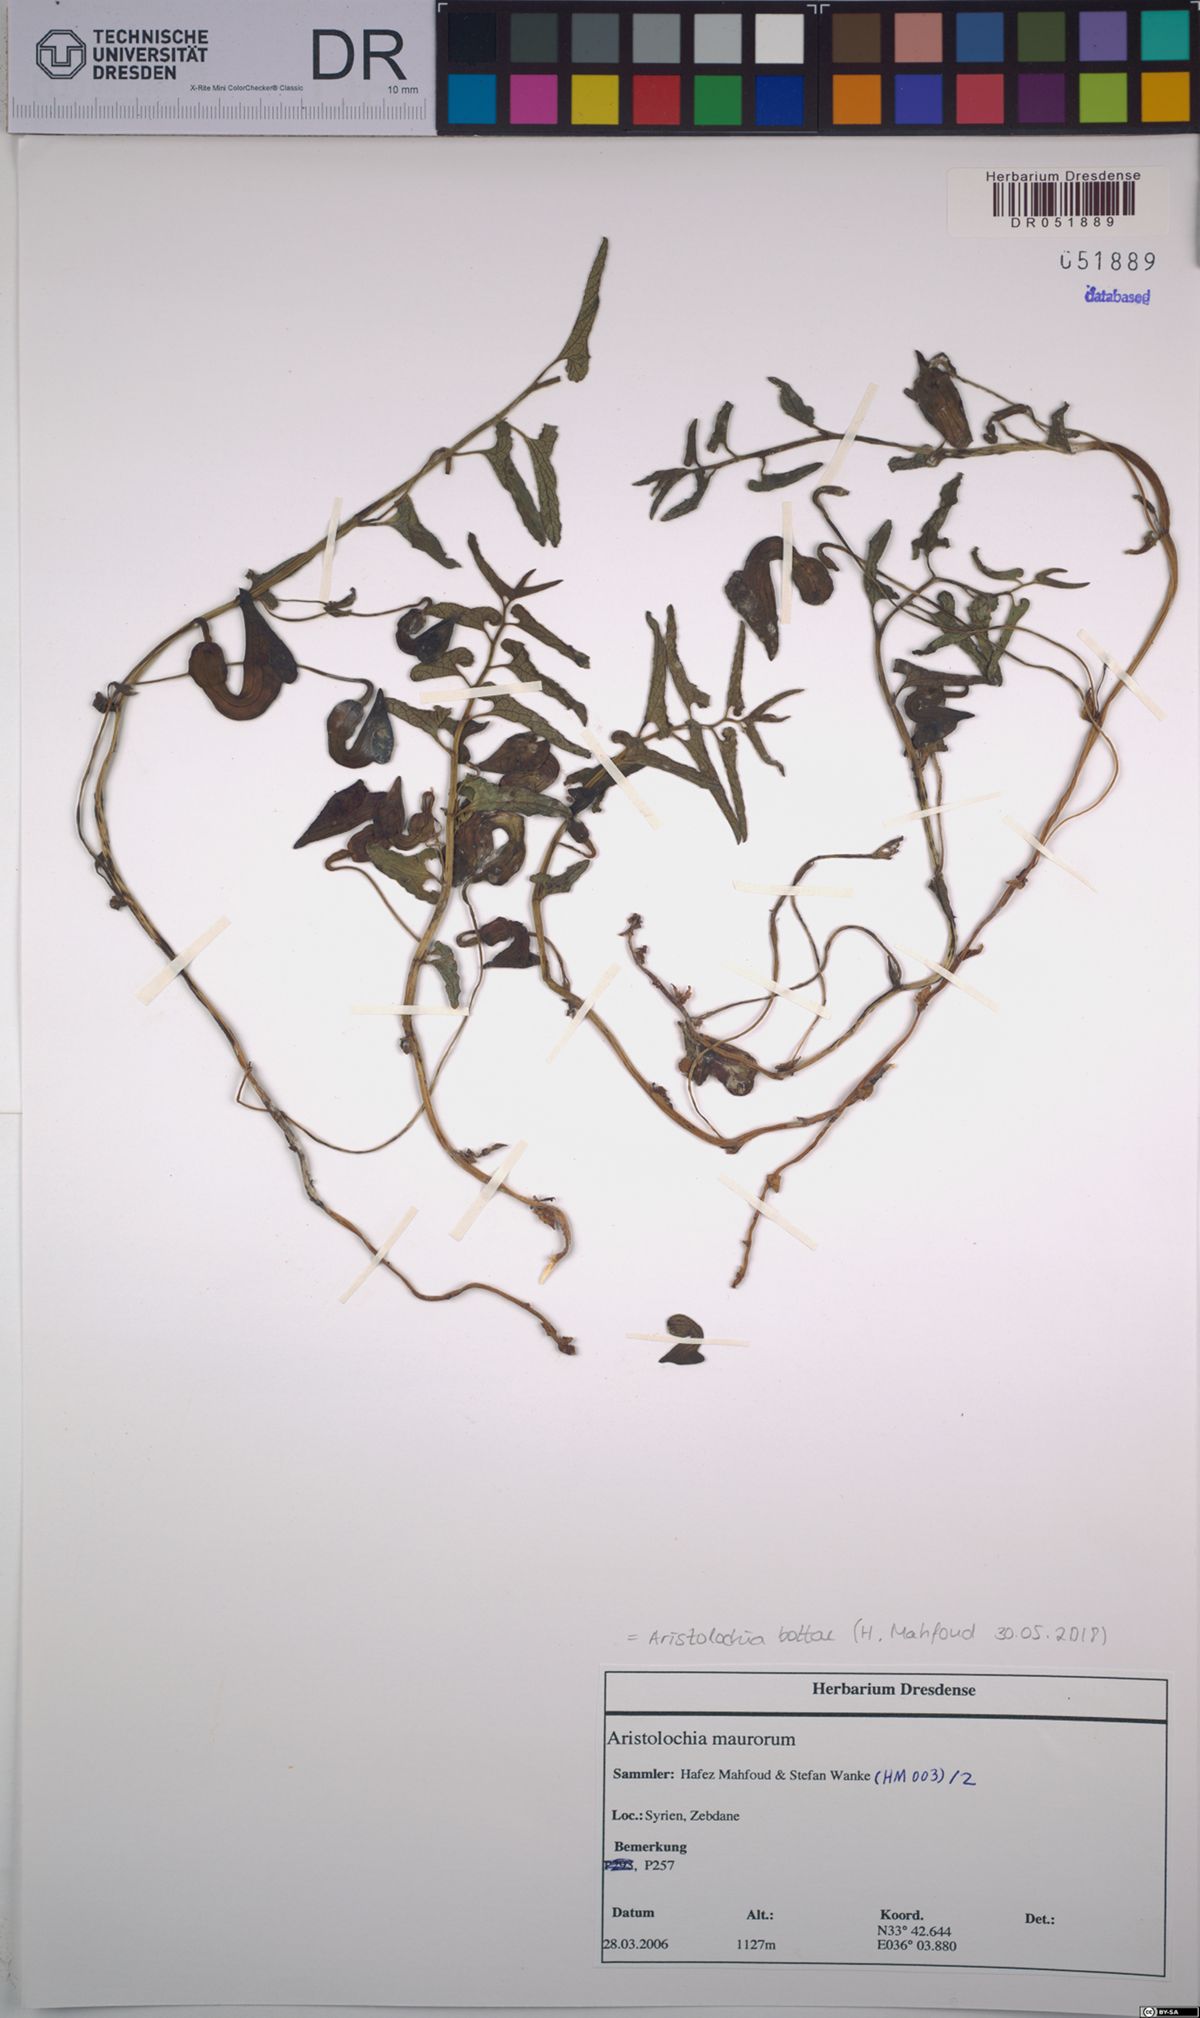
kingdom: Plantae
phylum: Tracheophyta
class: Magnoliopsida
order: Piperales
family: Aristolochiaceae
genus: Aristolochia
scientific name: Aristolochia bottae
